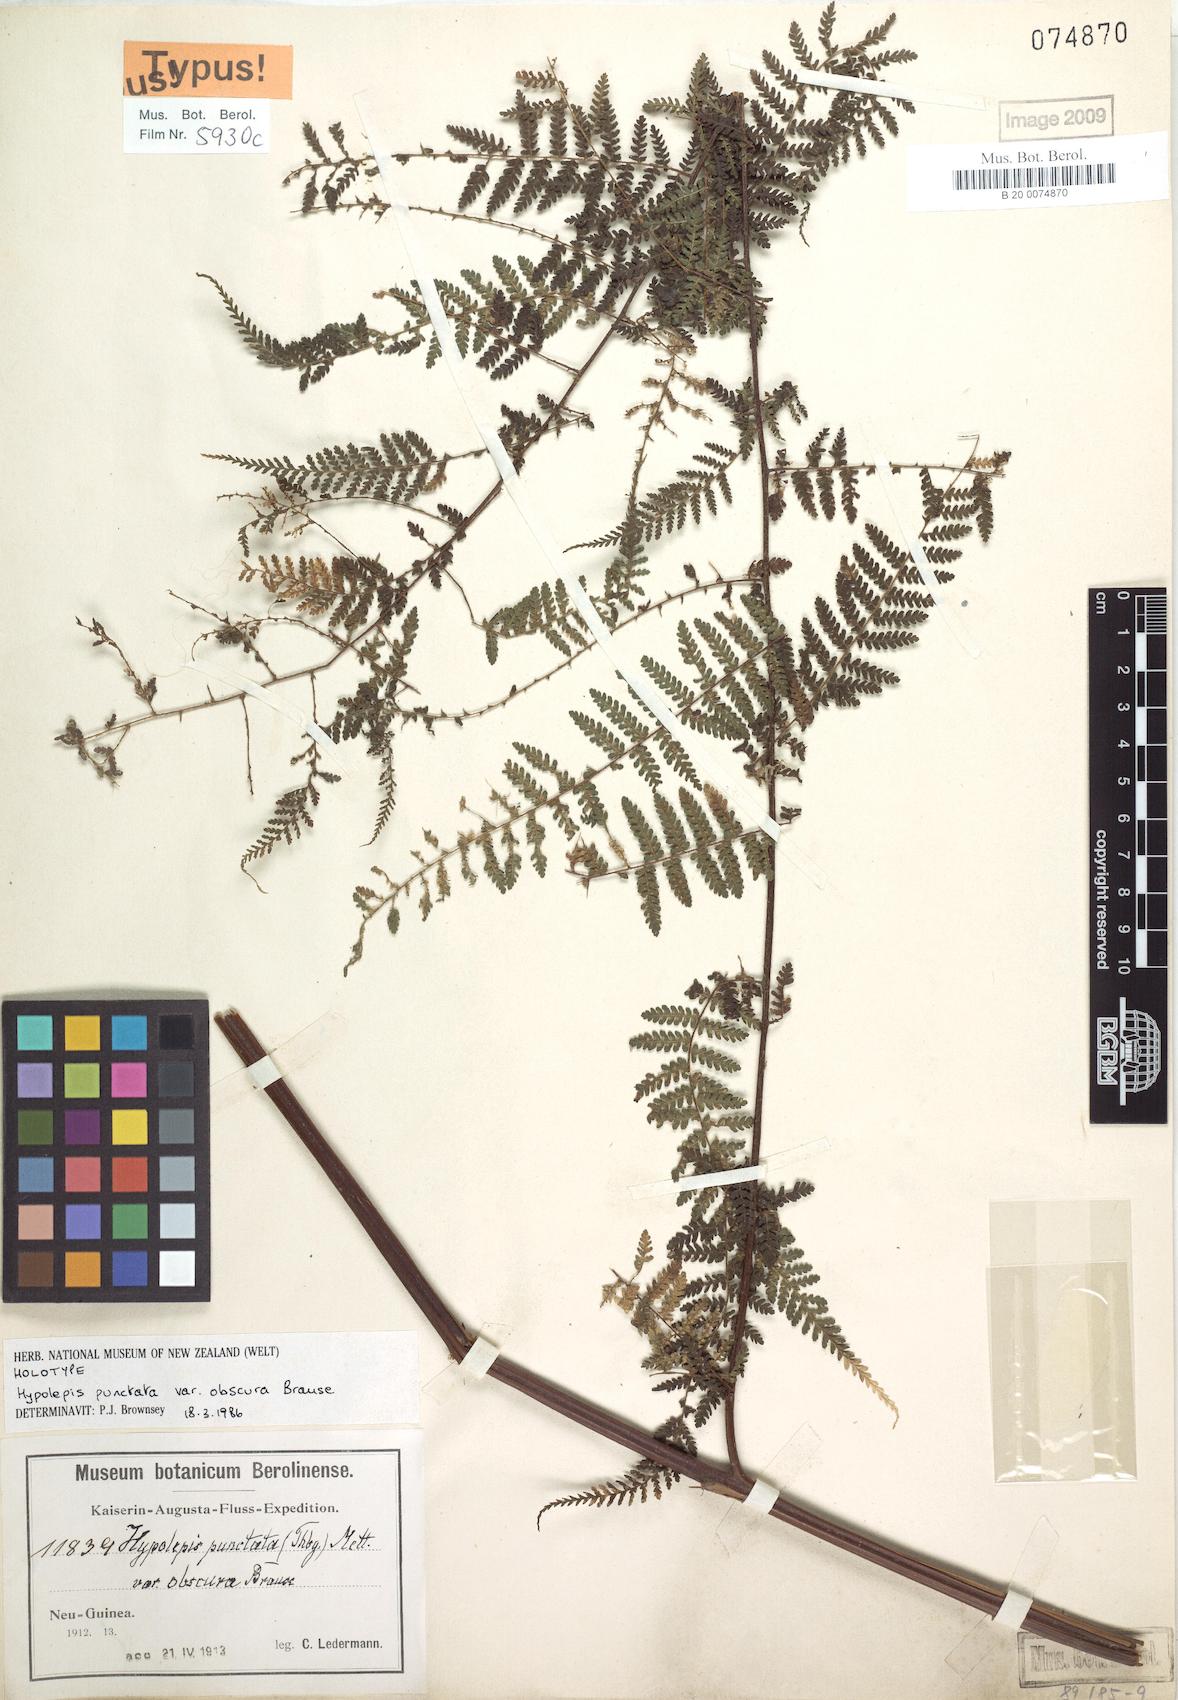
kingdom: Plantae
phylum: Tracheophyta
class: Polypodiopsida
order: Polypodiales
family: Dennstaedtiaceae
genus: Hypolepis
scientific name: Hypolepis bamleriana
